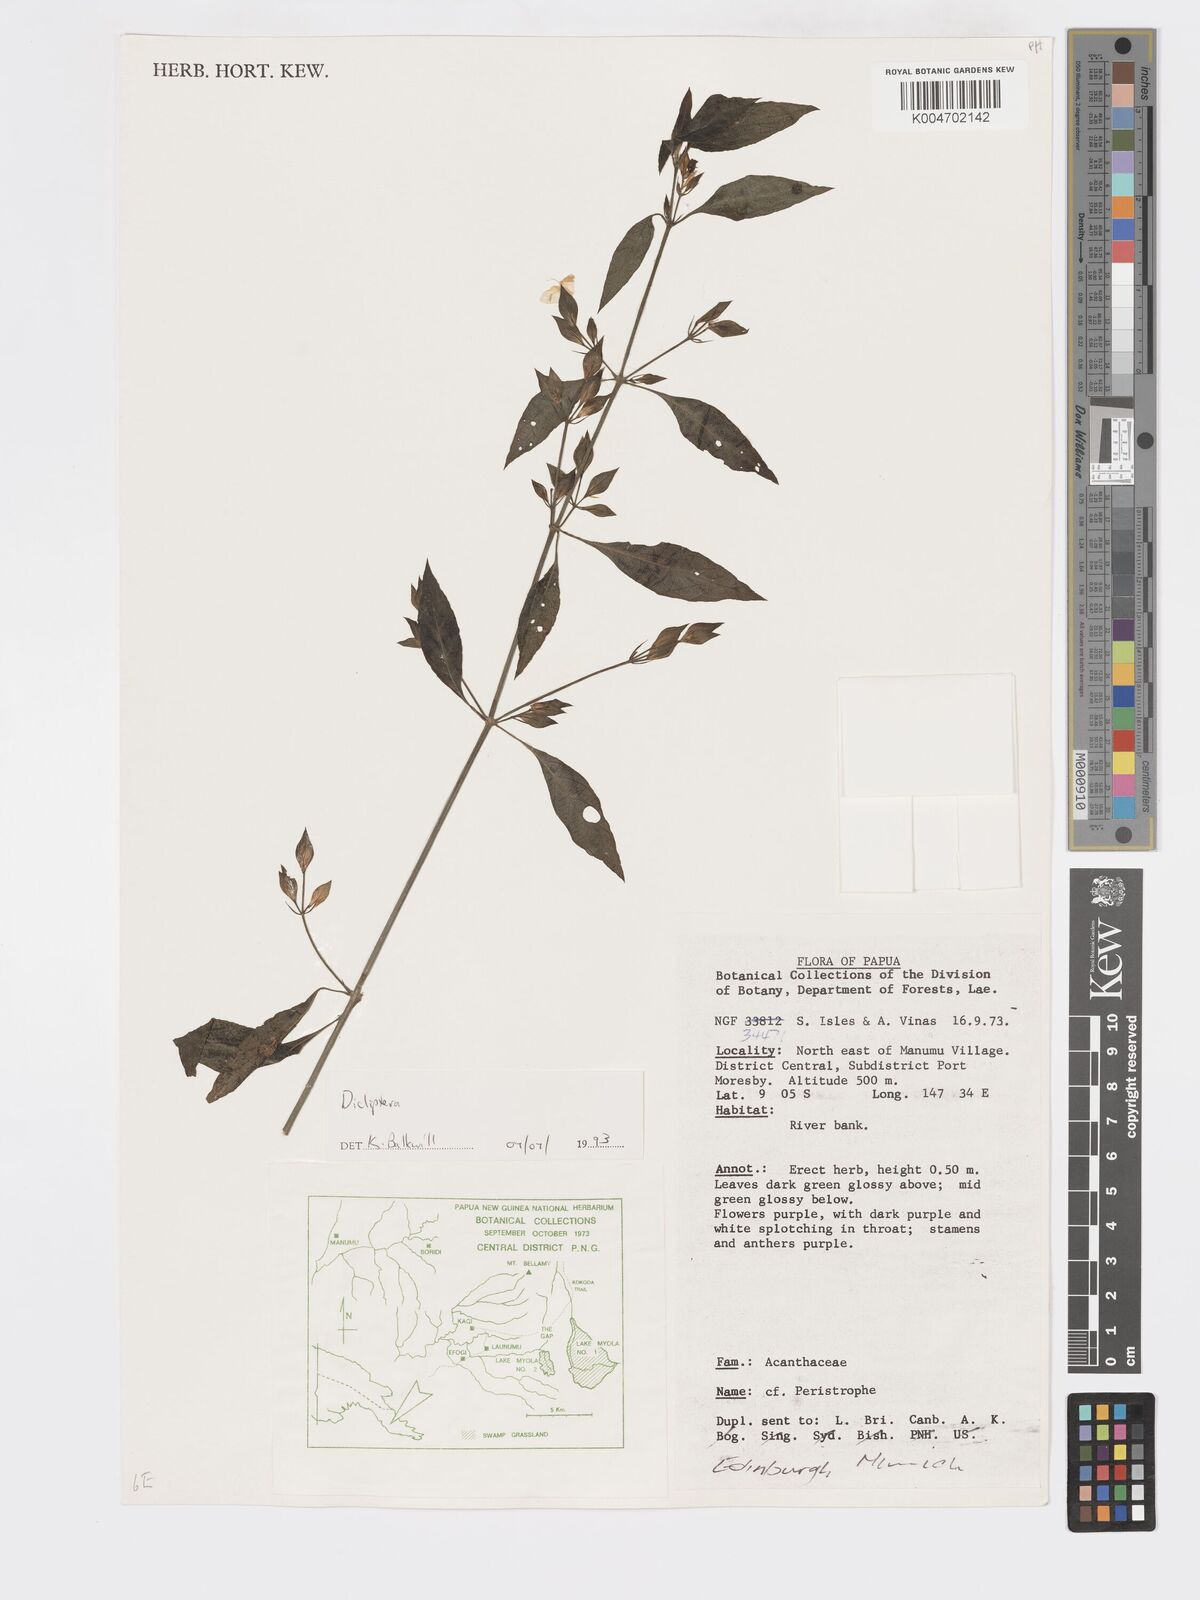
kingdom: Plantae
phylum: Tracheophyta
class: Magnoliopsida
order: Lamiales
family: Acanthaceae
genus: Dicliptera
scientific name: Dicliptera
